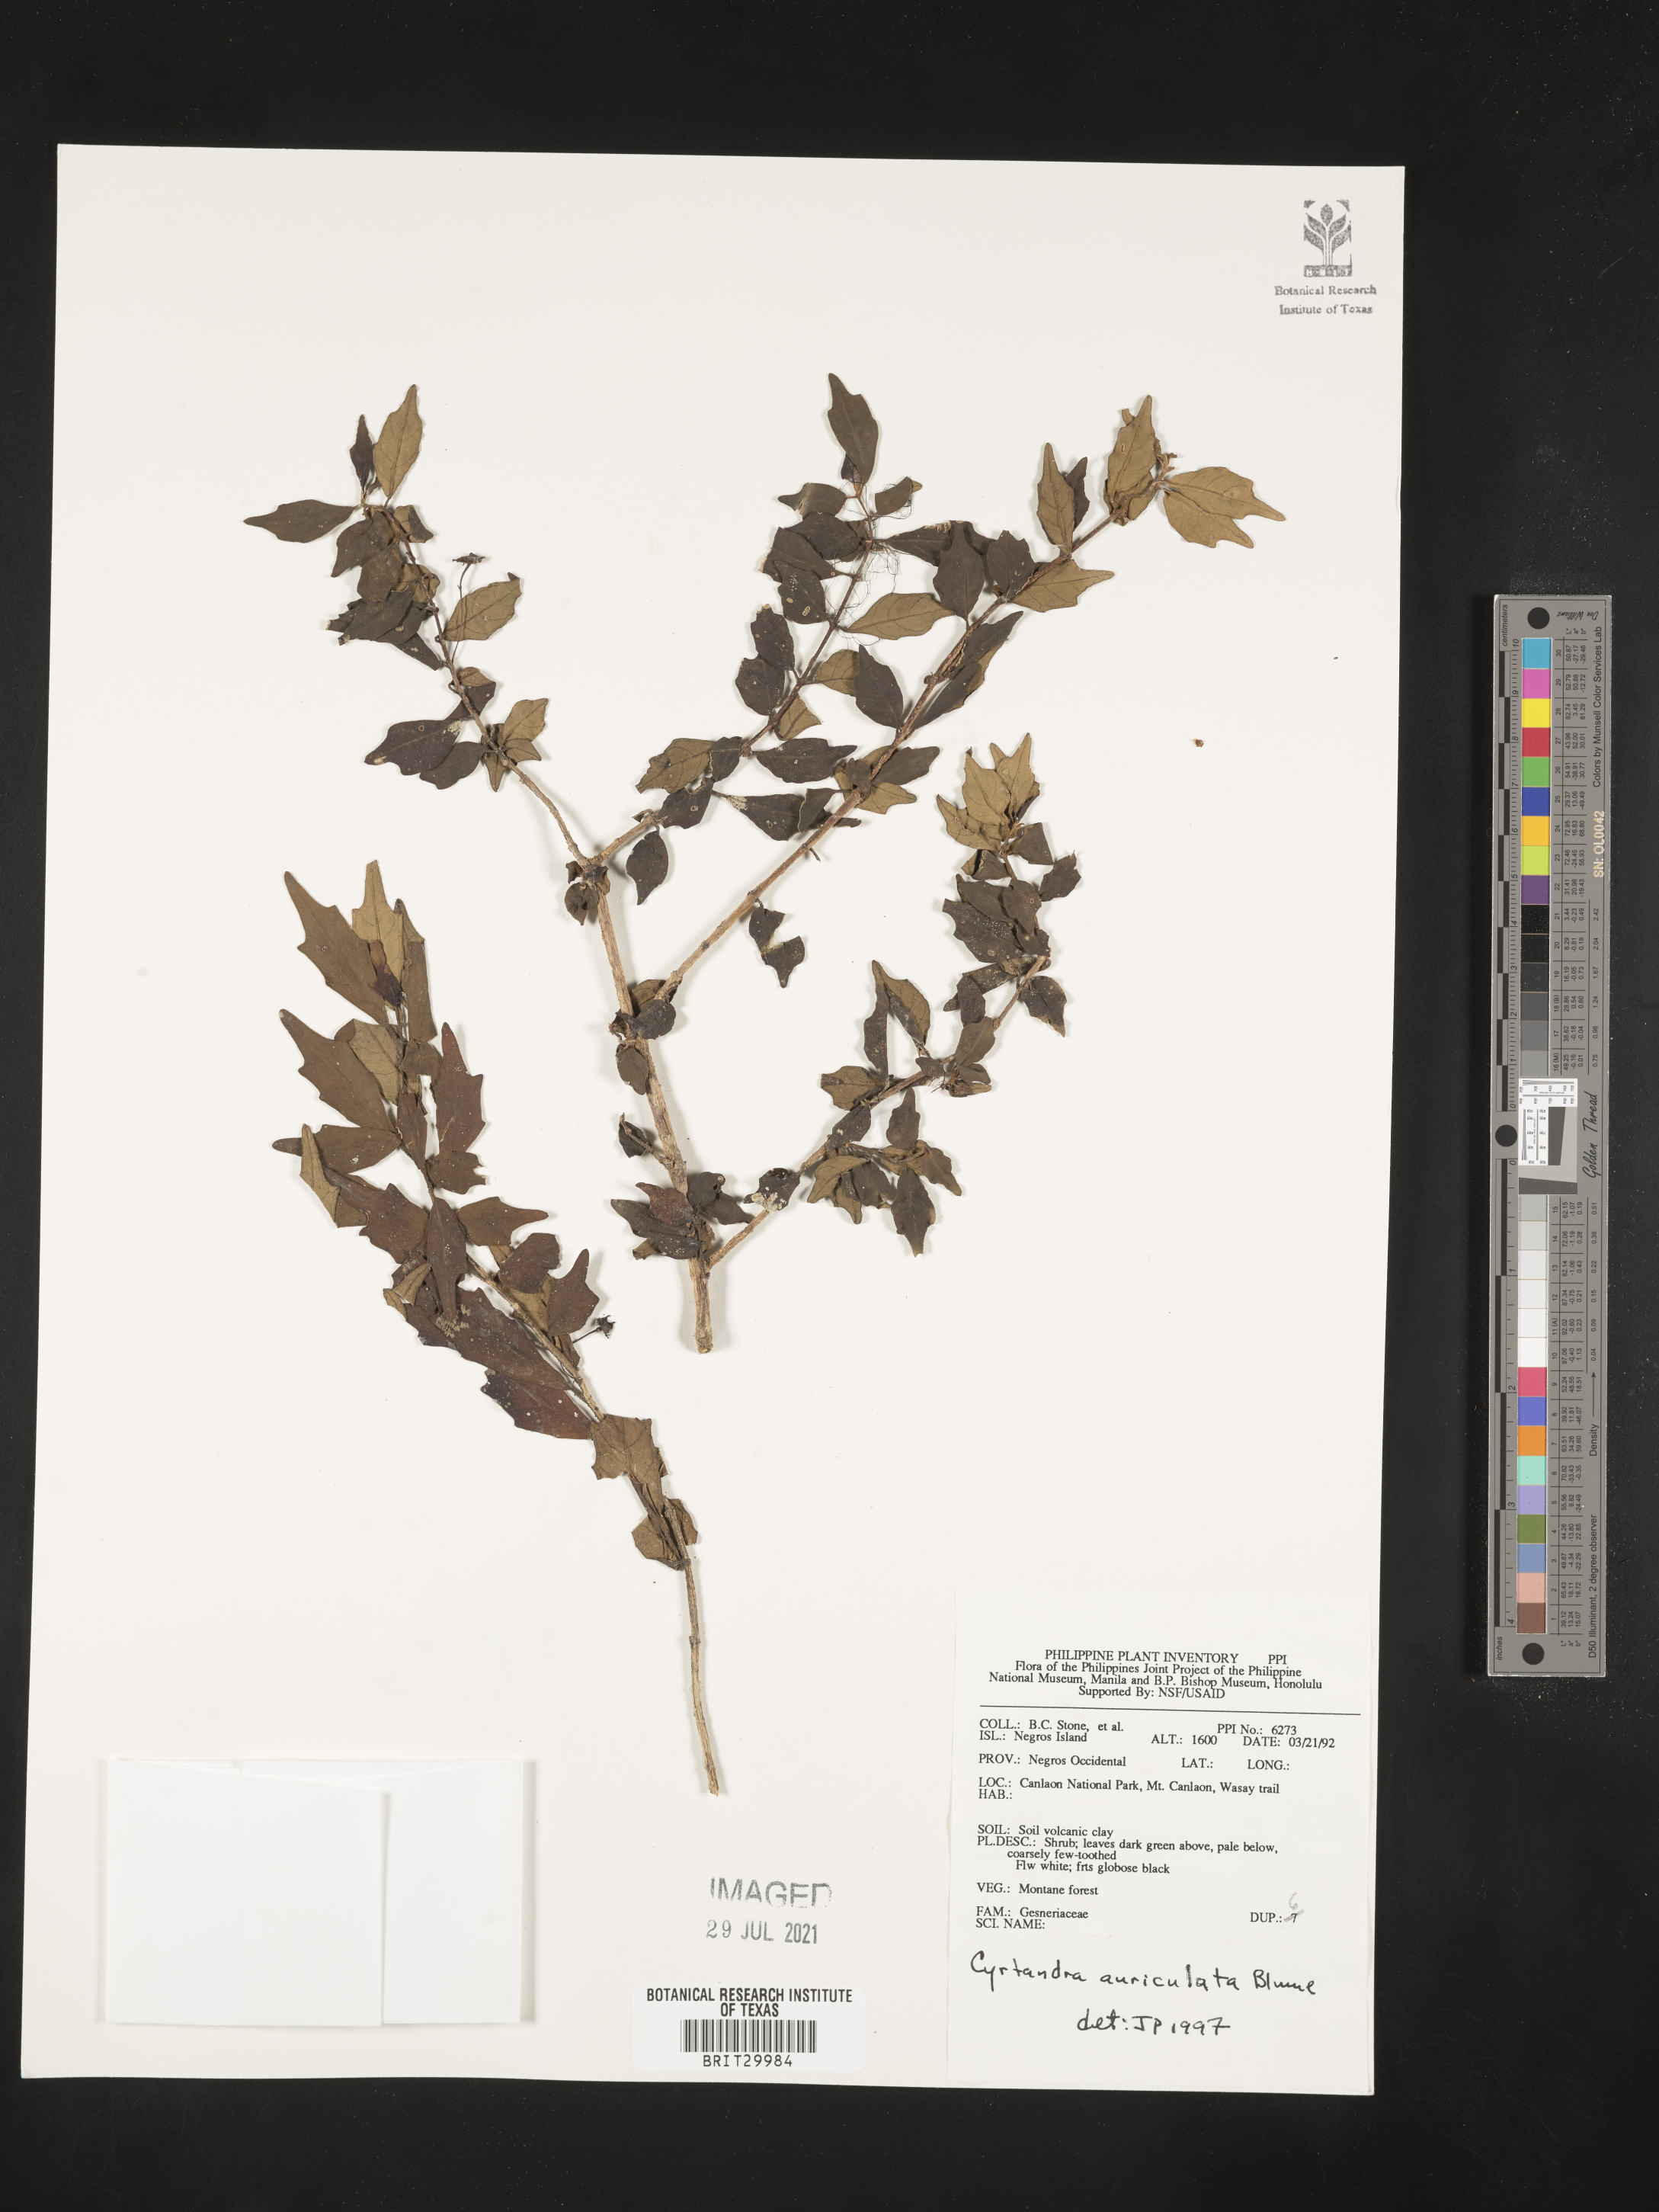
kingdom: Plantae
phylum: Tracheophyta
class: Magnoliopsida
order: Lamiales
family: Gesneriaceae
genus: Cyrtandra
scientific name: Cyrtandra auriculata
